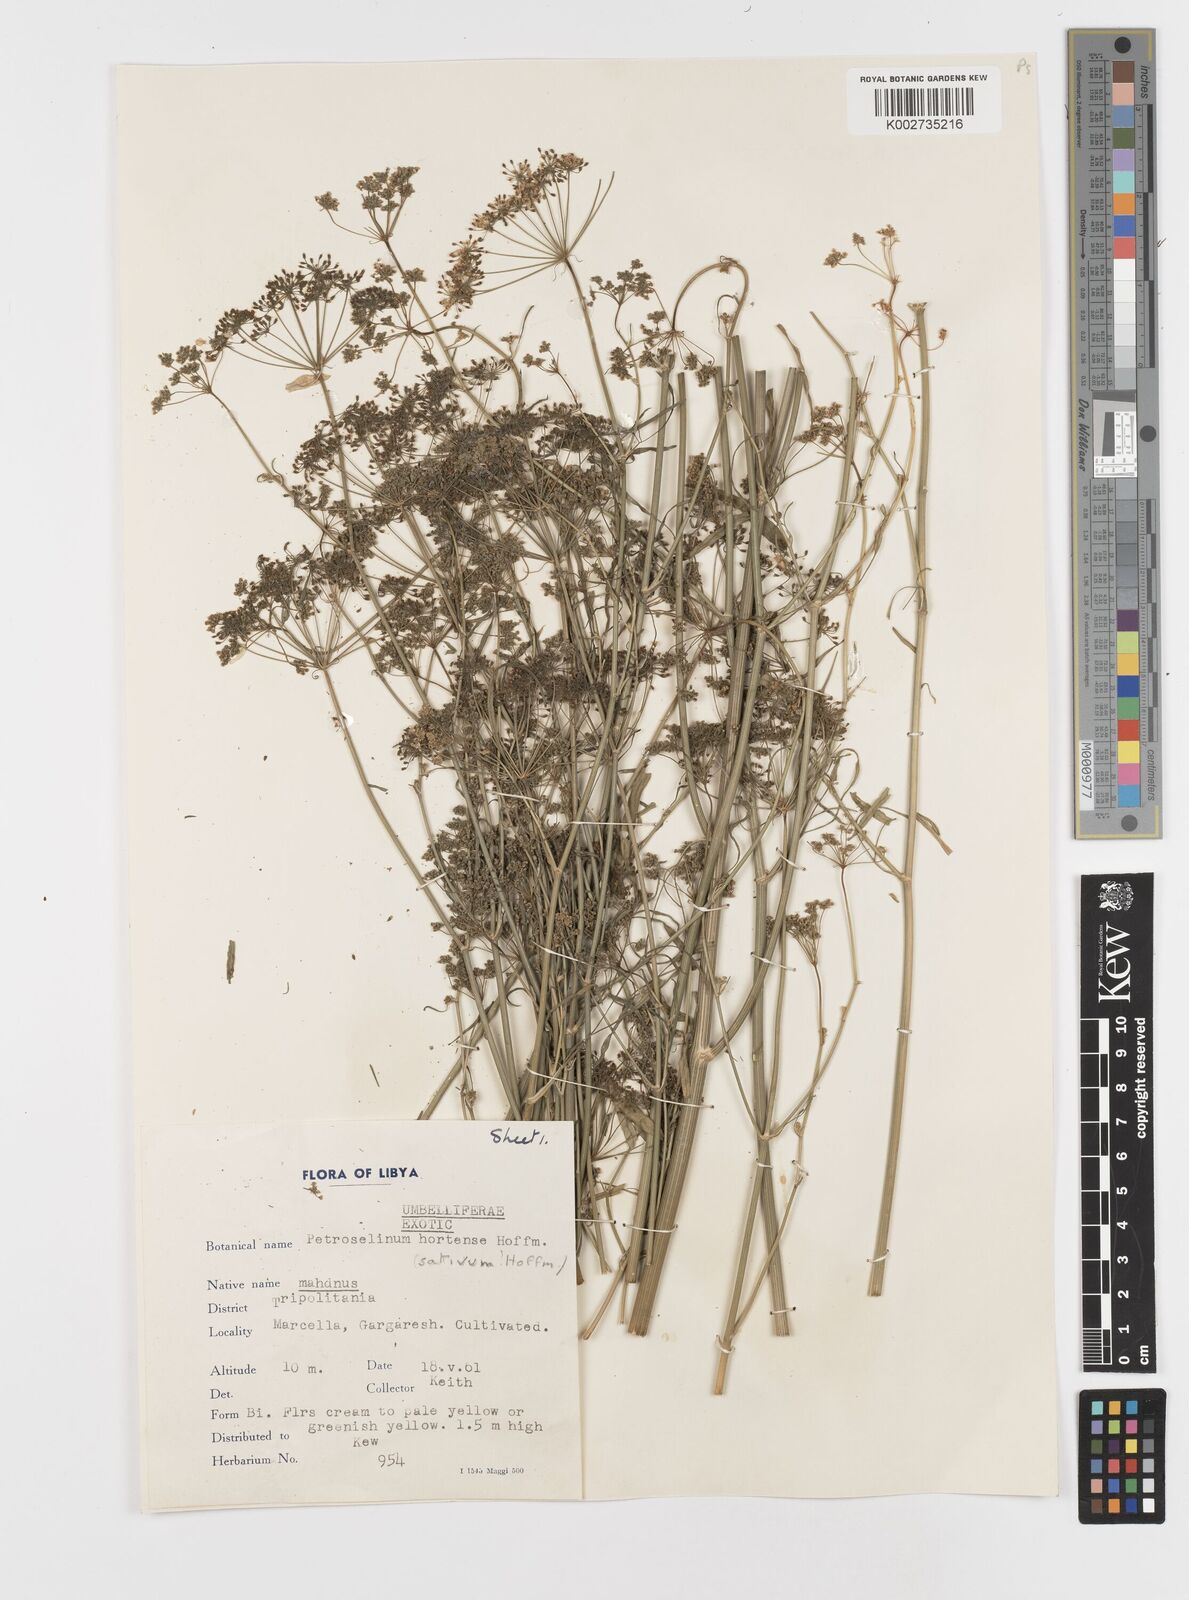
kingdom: Plantae
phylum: Tracheophyta
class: Magnoliopsida
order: Apiales
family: Apiaceae
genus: Petroselinum
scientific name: Petroselinum crispum
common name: Parsley
